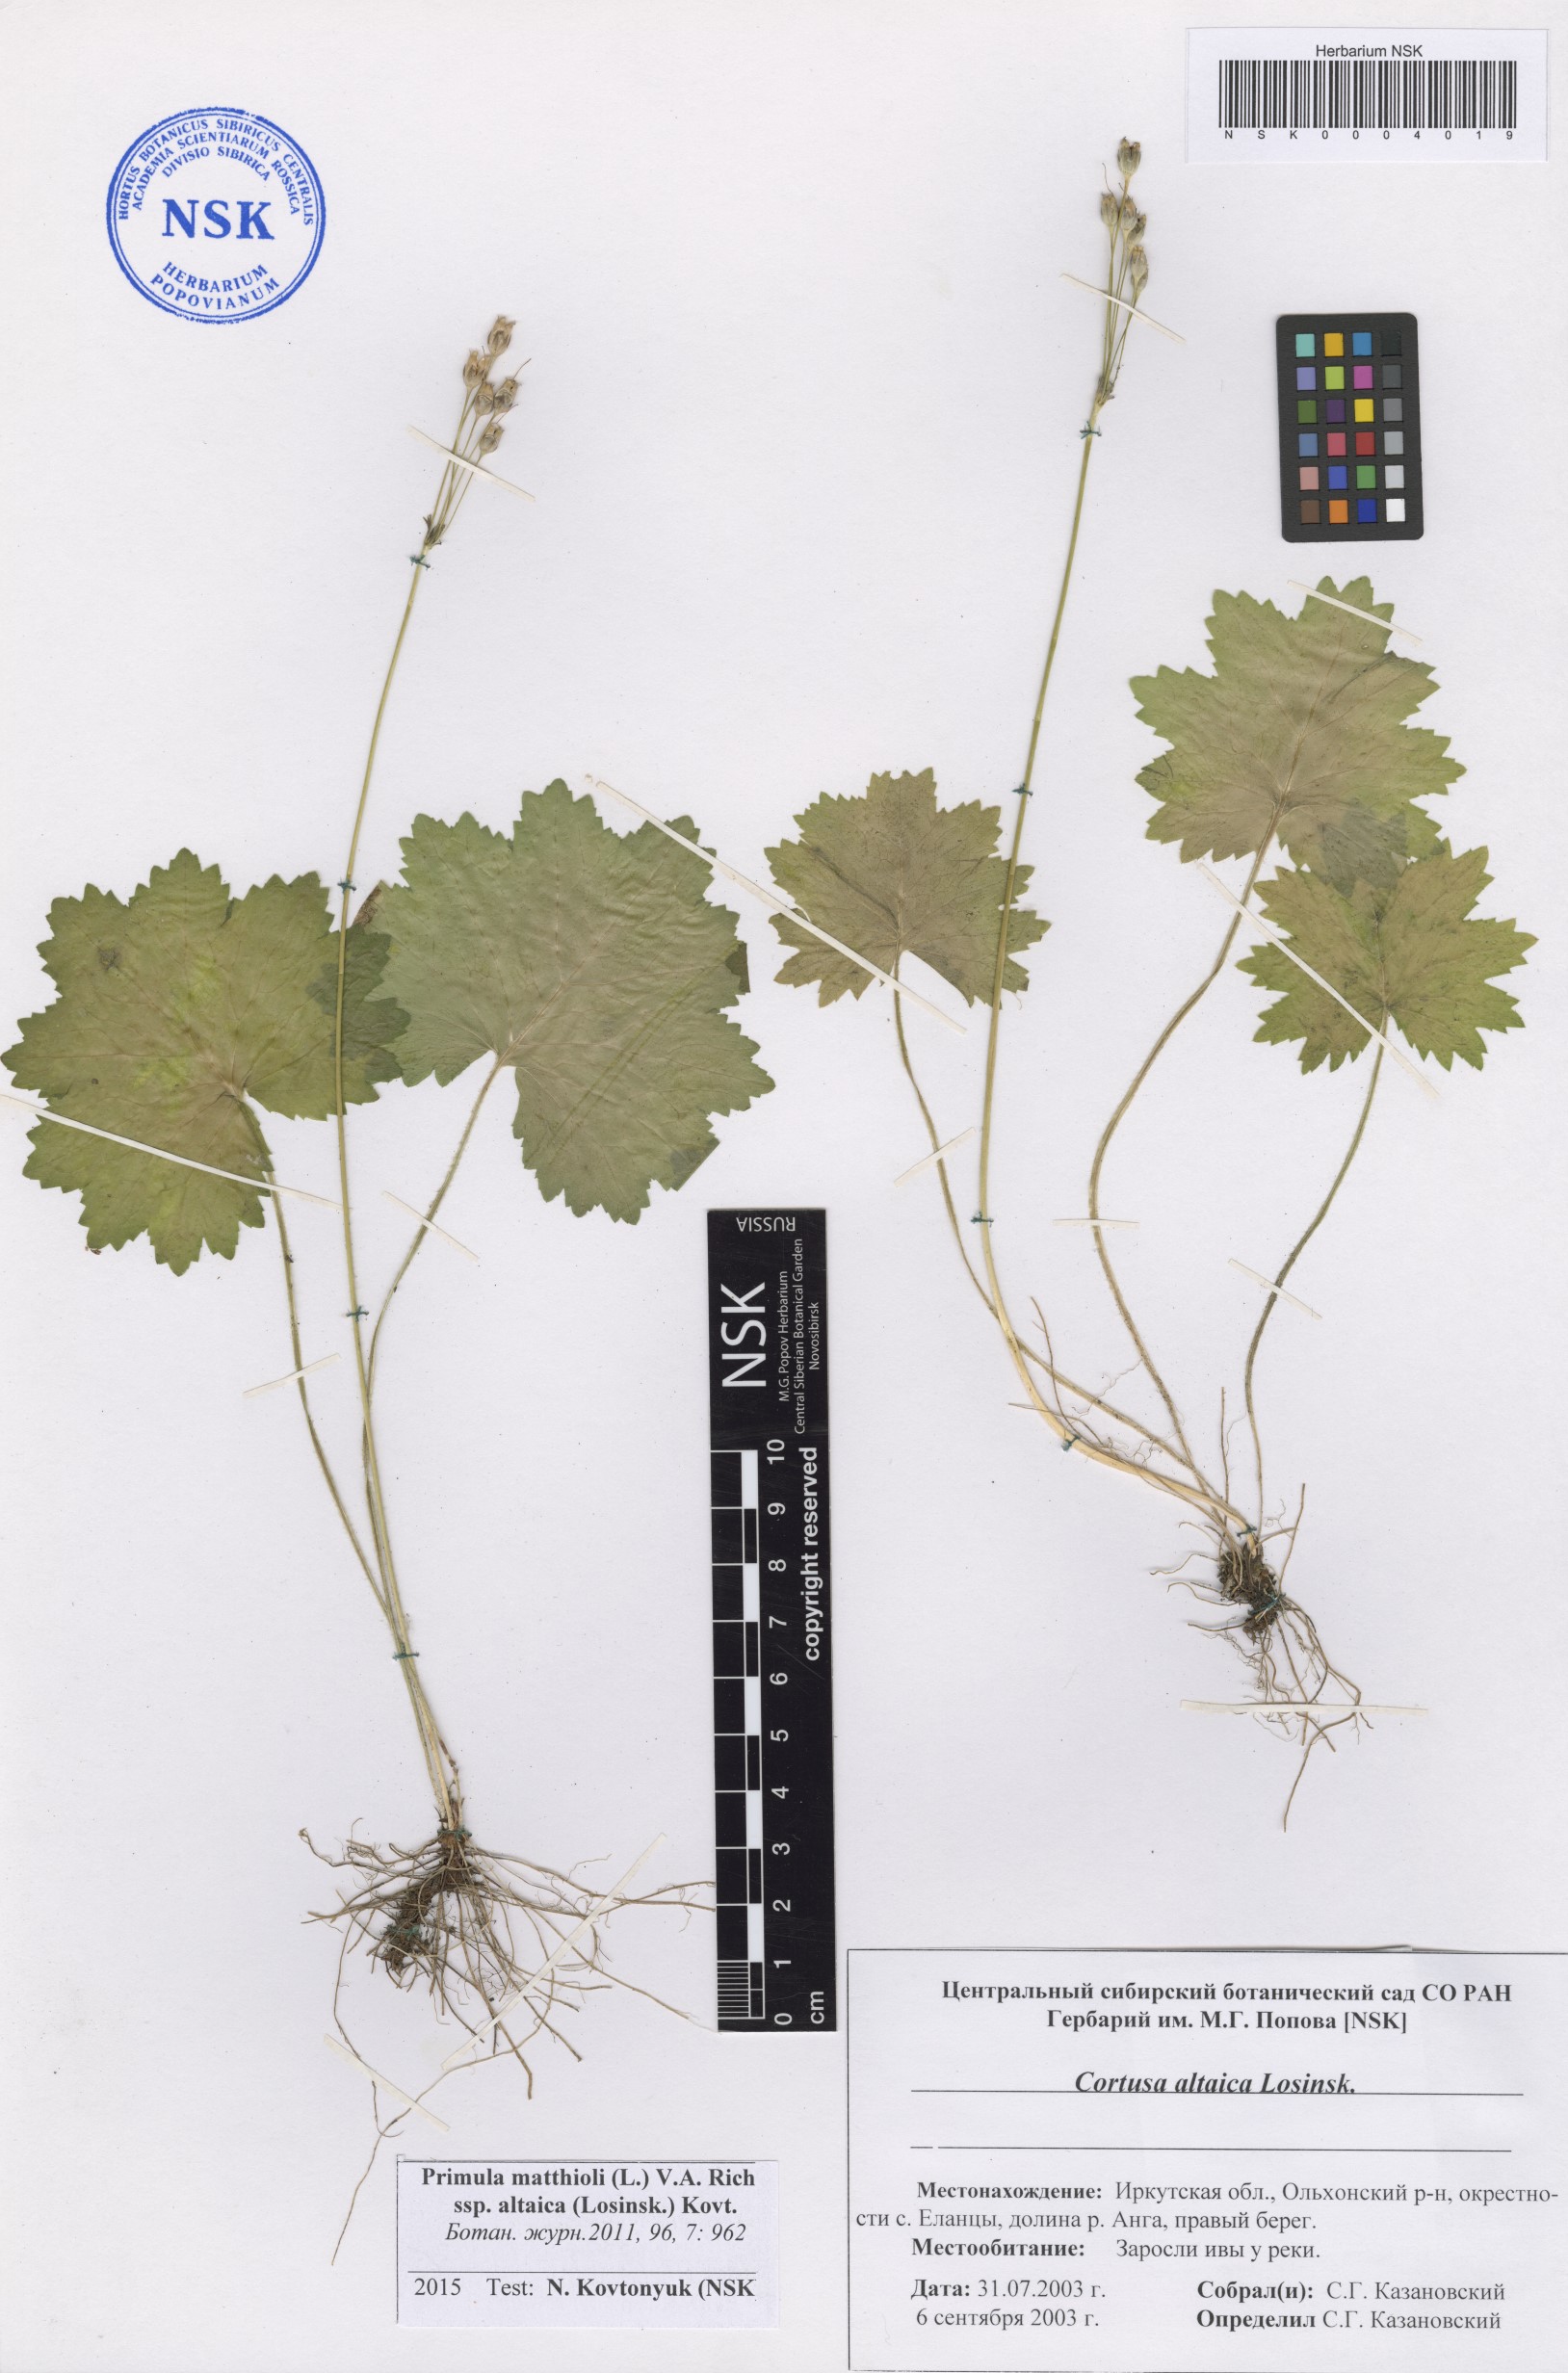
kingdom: Plantae
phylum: Tracheophyta
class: Magnoliopsida
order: Ericales
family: Primulaceae
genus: Primula
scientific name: Primula matthioli
